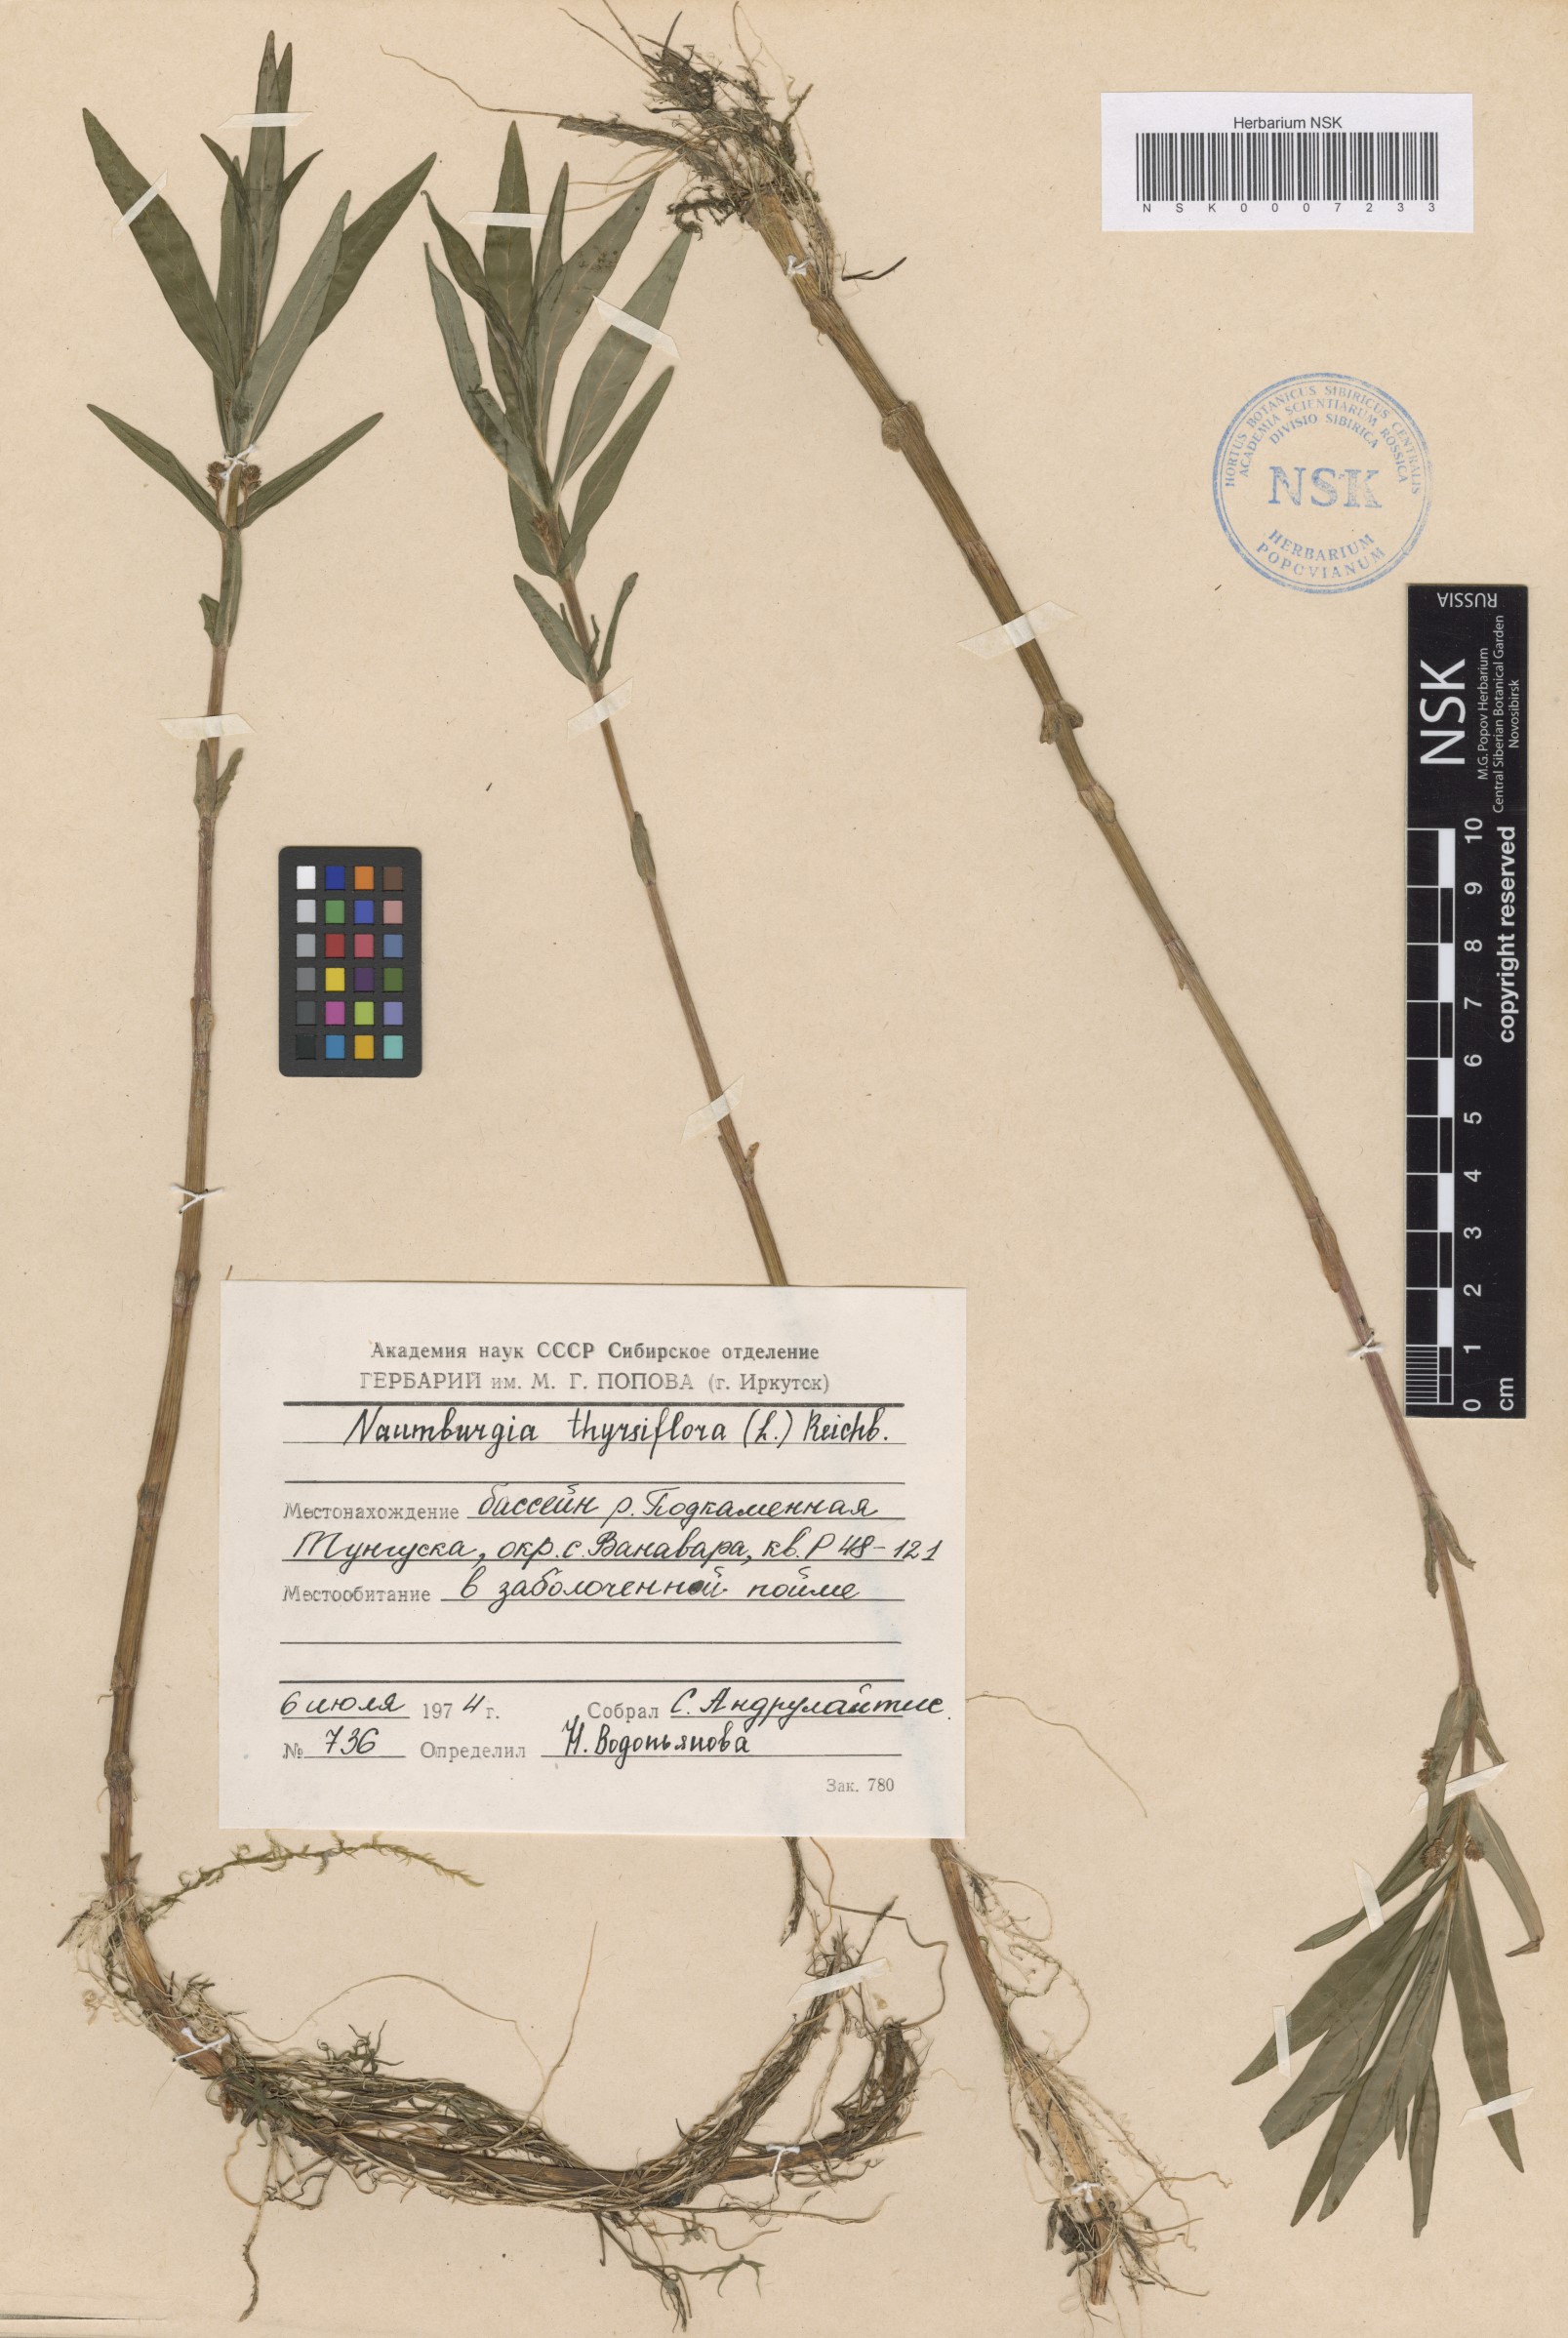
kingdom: Plantae
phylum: Tracheophyta
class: Magnoliopsida
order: Ericales
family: Primulaceae
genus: Lysimachia
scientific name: Lysimachia thyrsiflora
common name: Tufted loosestrife
